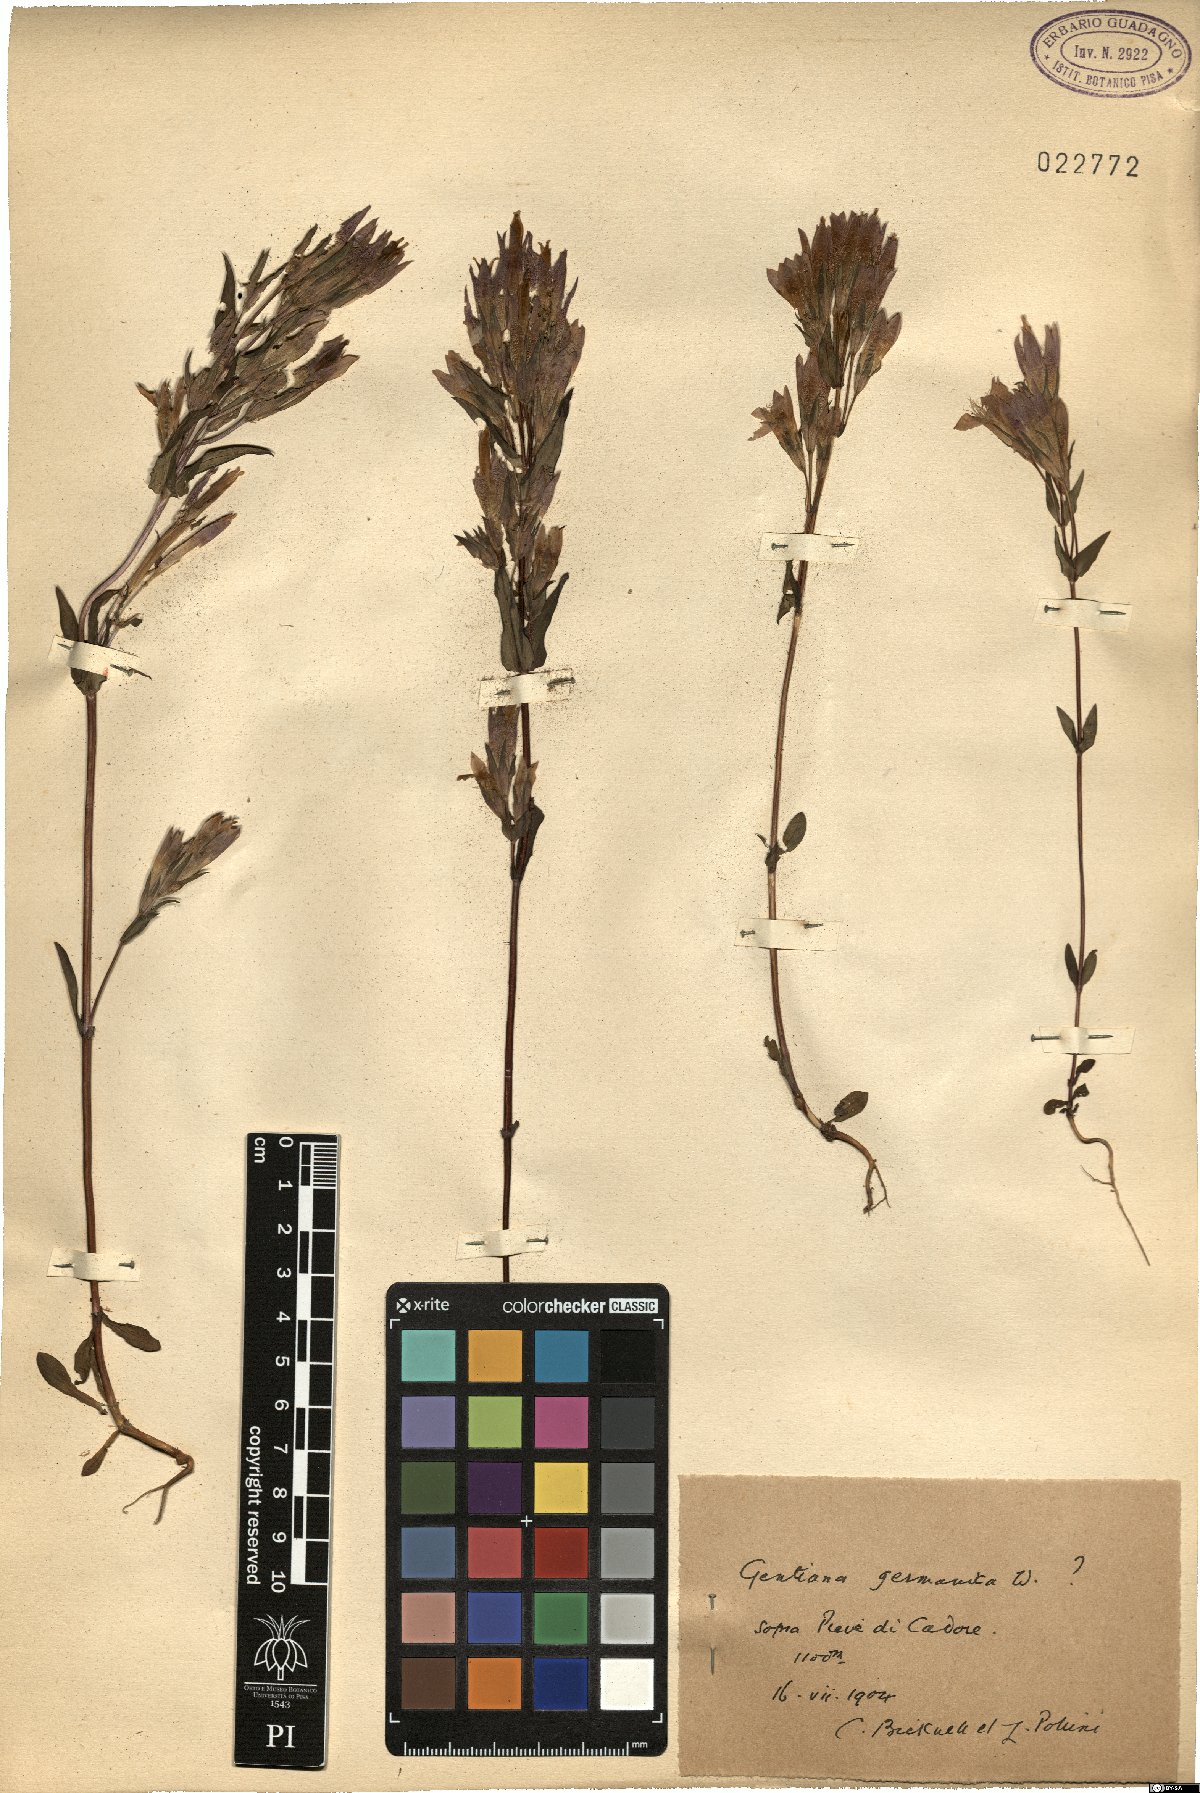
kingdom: Plantae
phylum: Tracheophyta
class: Magnoliopsida
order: Gentianales
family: Gentianaceae
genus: Gentianella
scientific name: Gentianella germanica
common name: Chiltern-gentian
